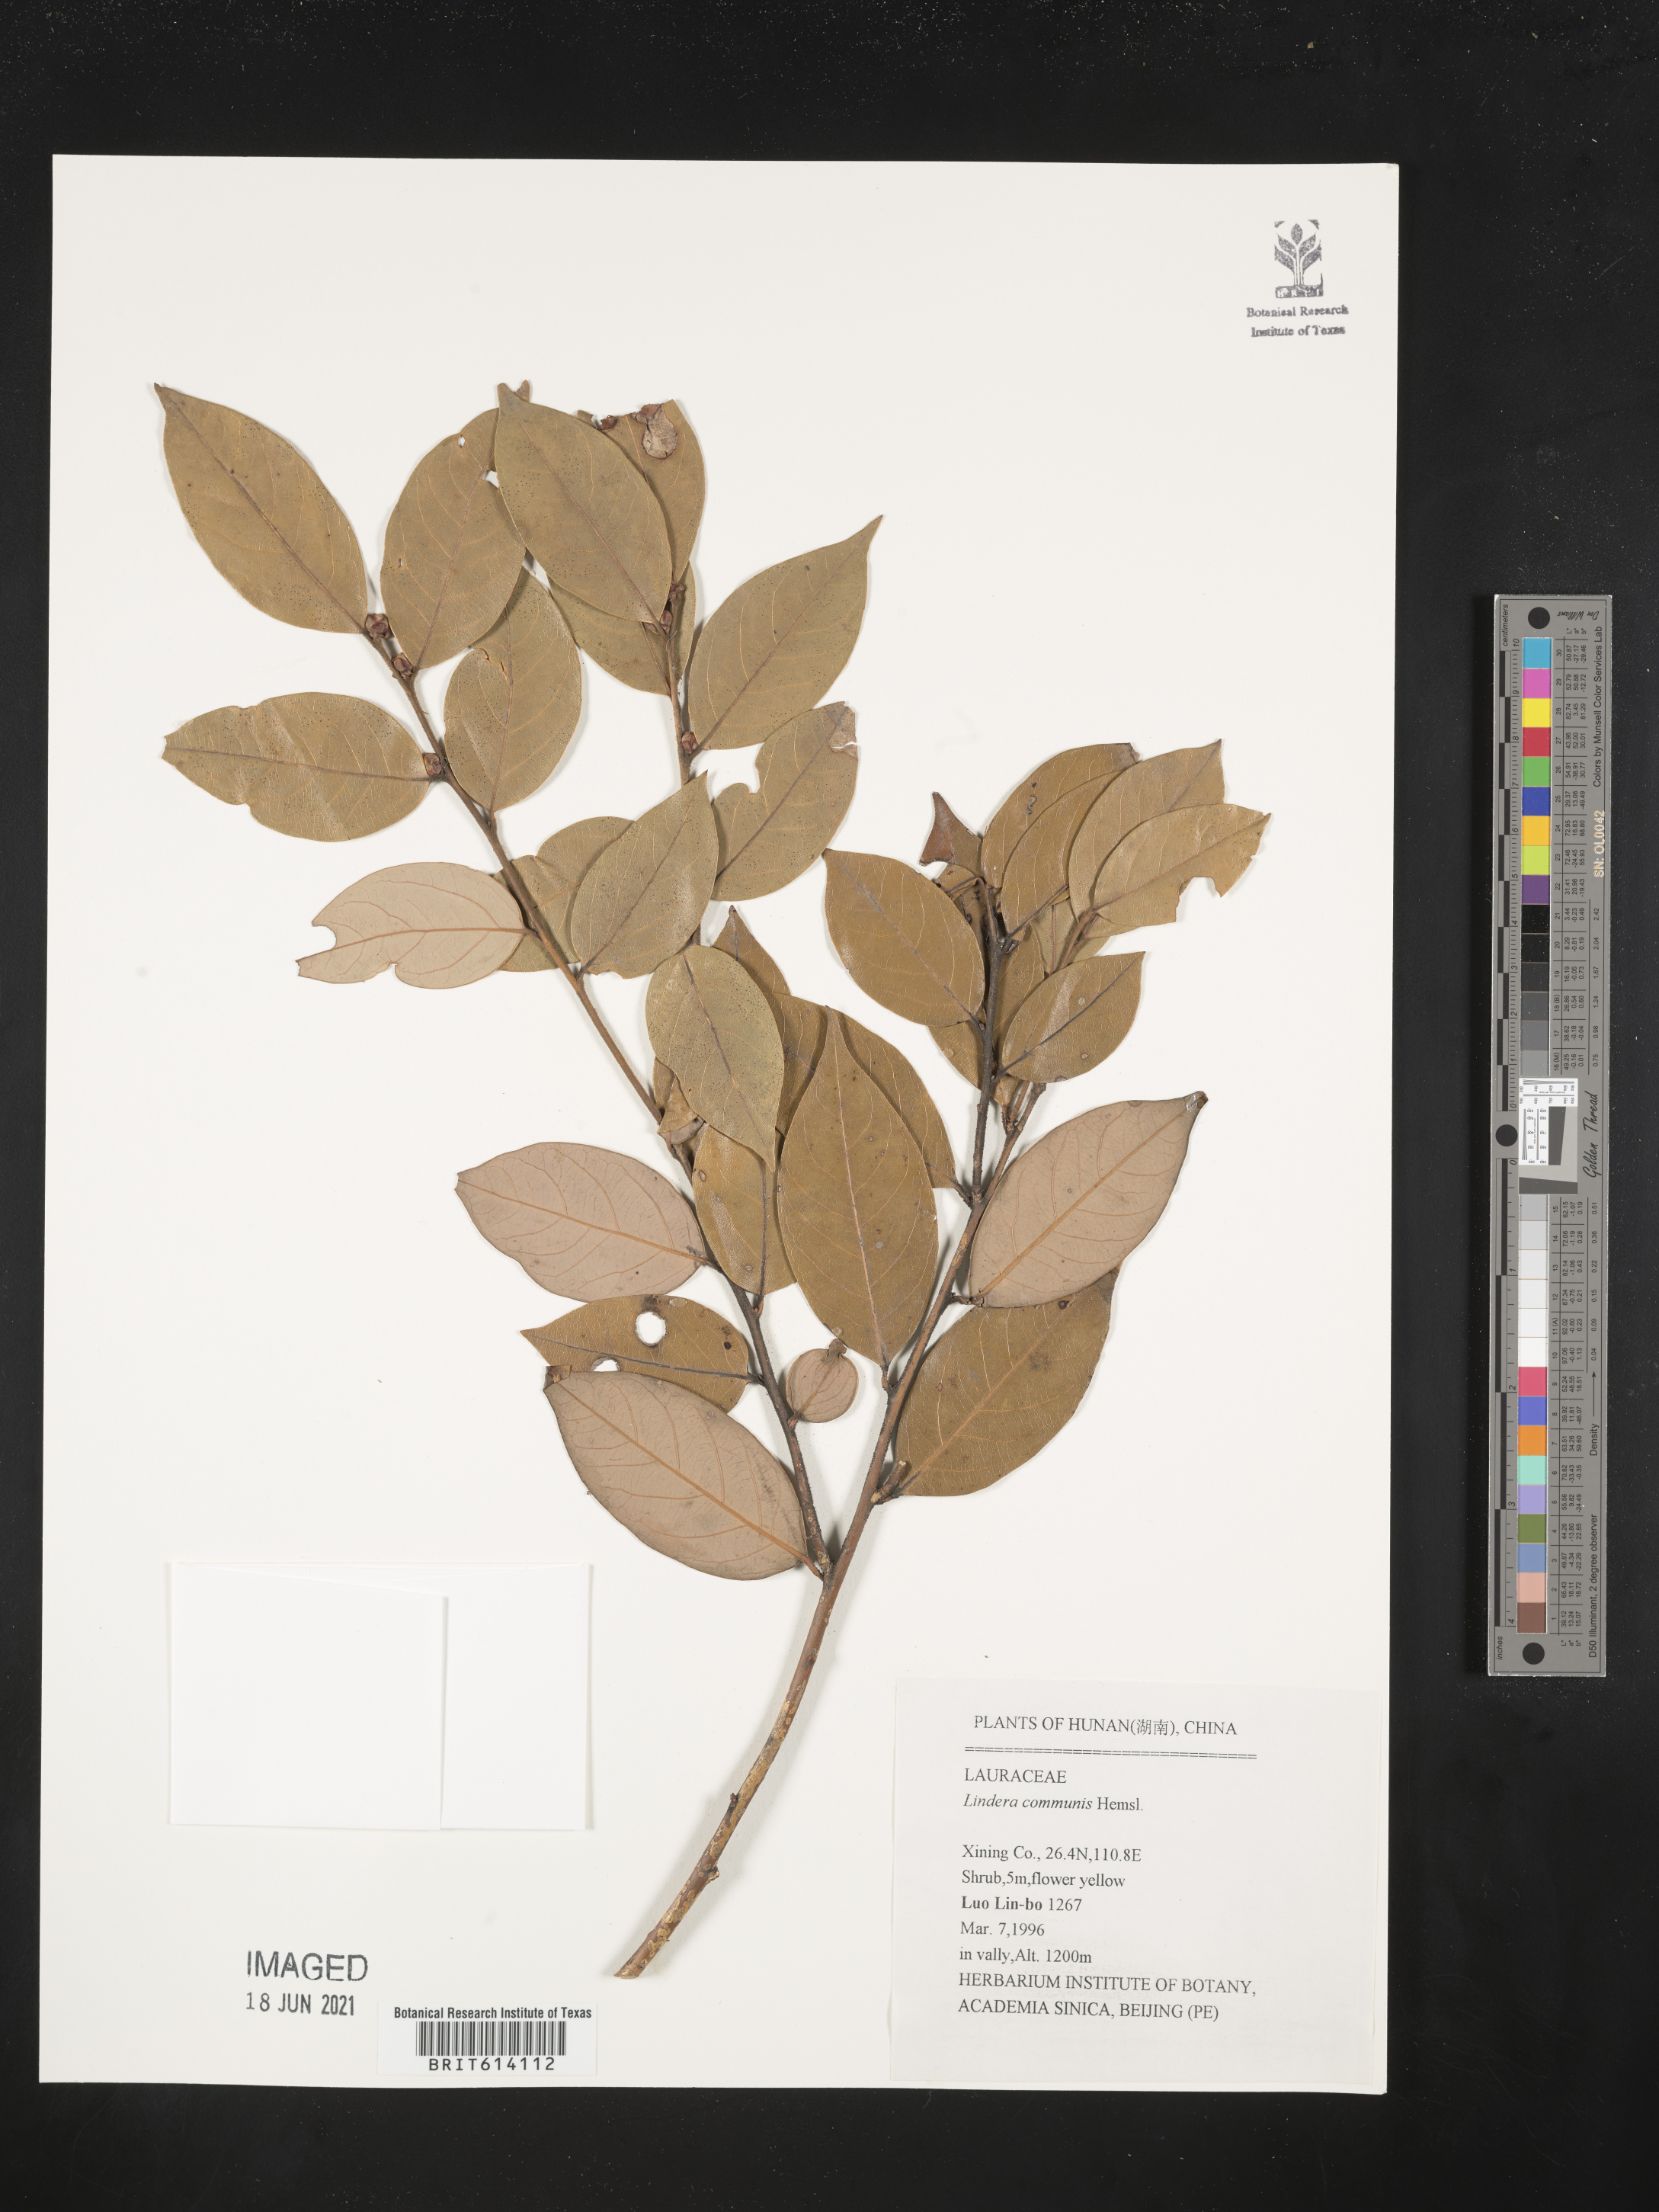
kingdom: Plantae
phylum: Tracheophyta
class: Magnoliopsida
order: Laurales
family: Lauraceae
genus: Lindera
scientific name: Lindera communis
